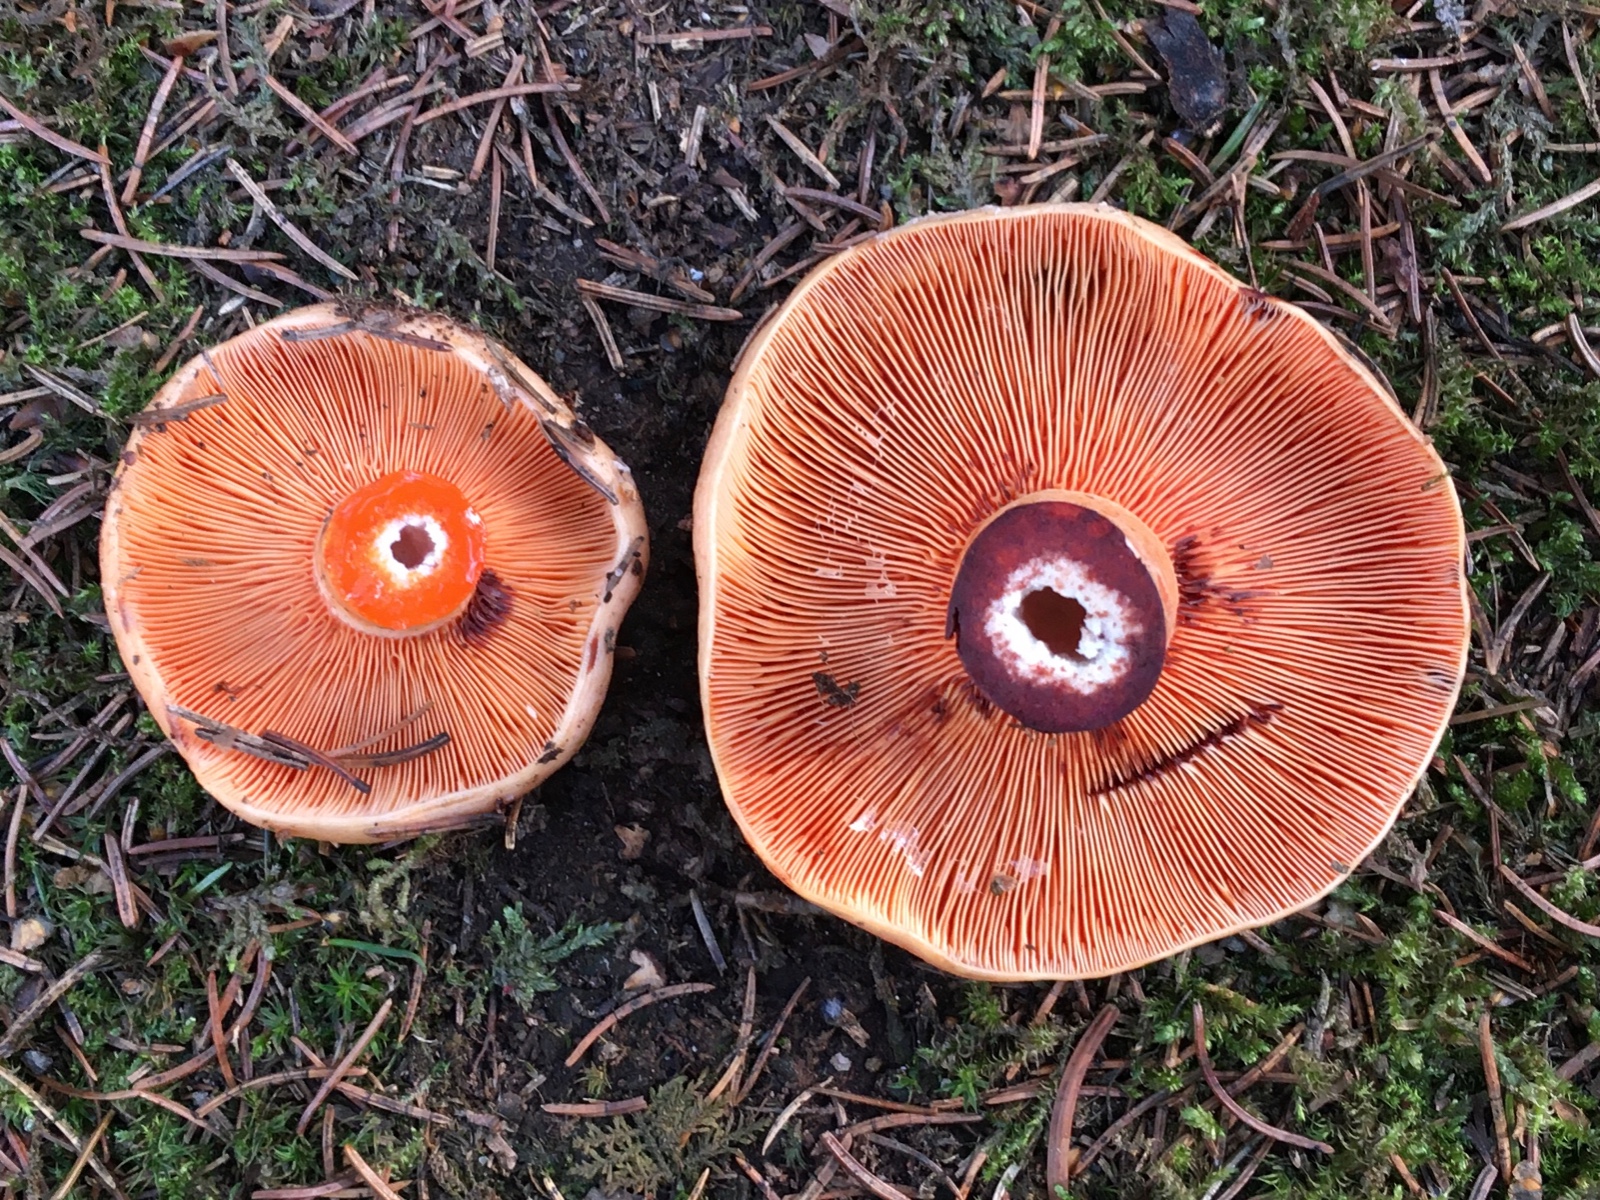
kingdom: Fungi
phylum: Basidiomycota
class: Agaricomycetes
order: Russulales
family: Russulaceae
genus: Lactarius
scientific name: Lactarius salmonicolor
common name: laksefarvet mælkehat
